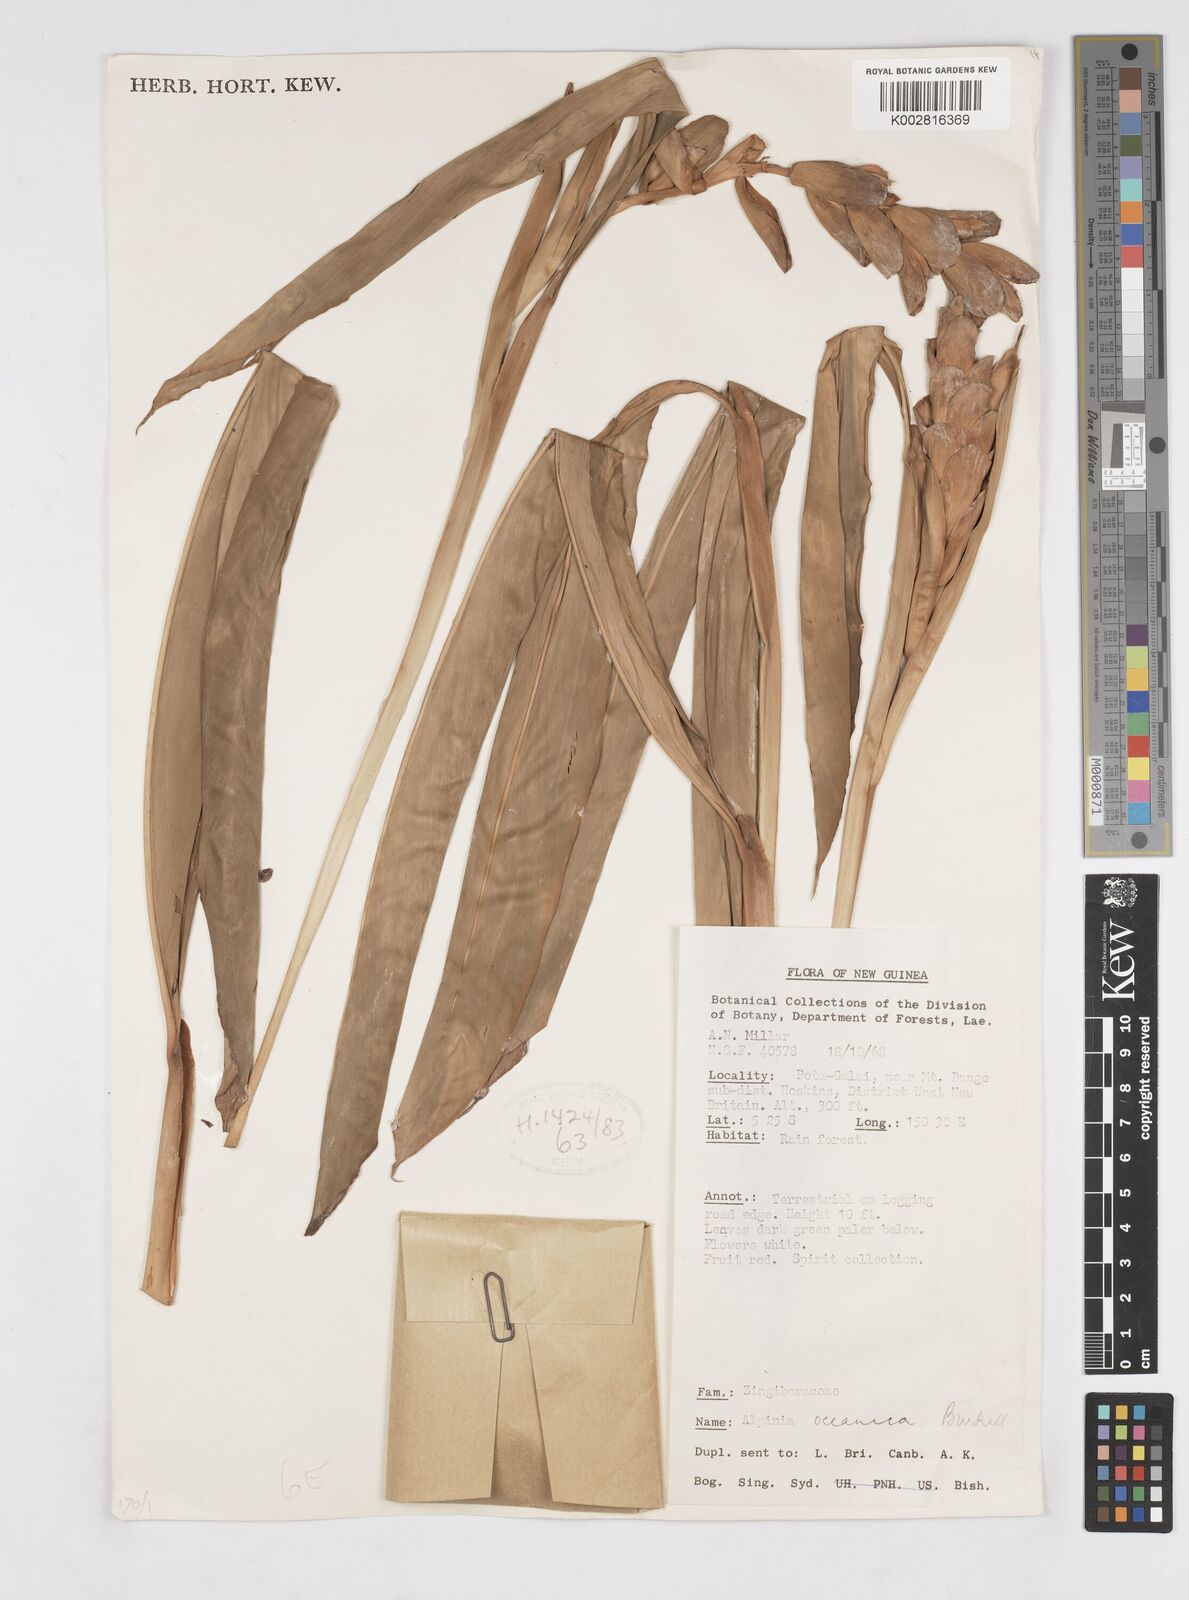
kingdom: Plantae
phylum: Tracheophyta
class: Liliopsida
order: Zingiberales
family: Zingiberaceae
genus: Alpinia
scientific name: Alpinia oceanica
